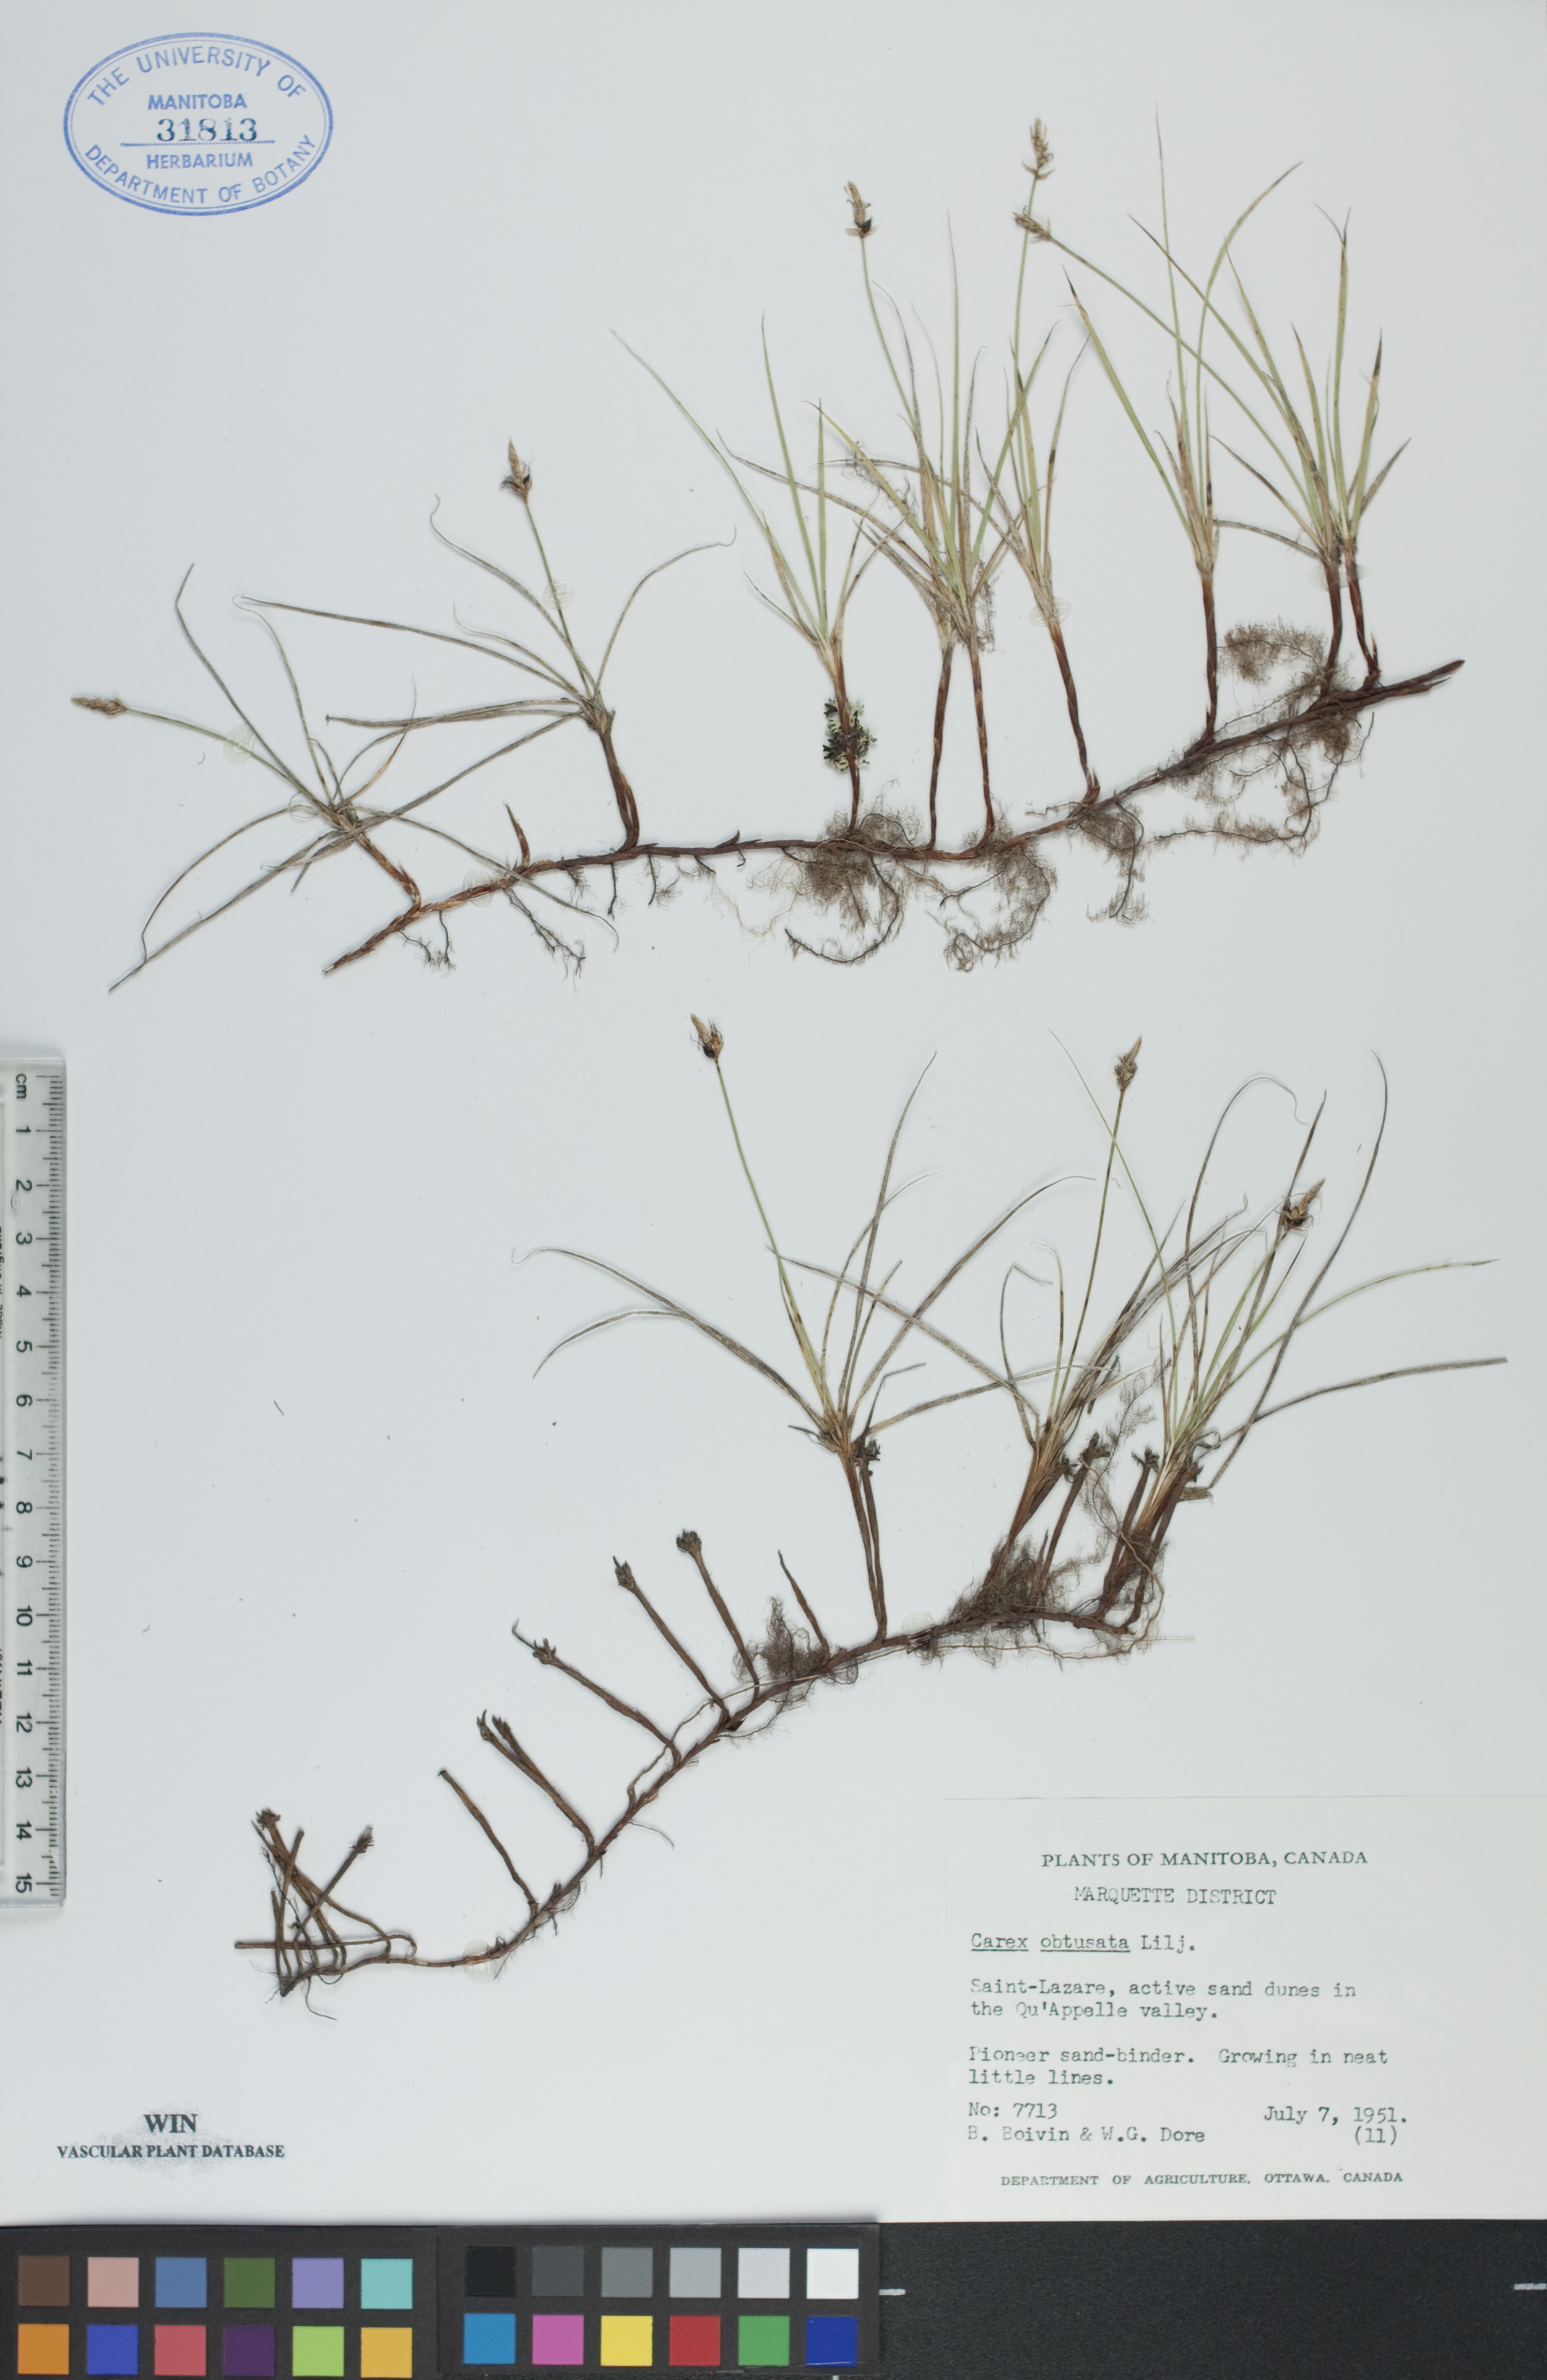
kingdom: Plantae
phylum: Tracheophyta
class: Liliopsida
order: Poales
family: Cyperaceae
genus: Carex
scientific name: Carex obtusata
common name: Blunt sedge
